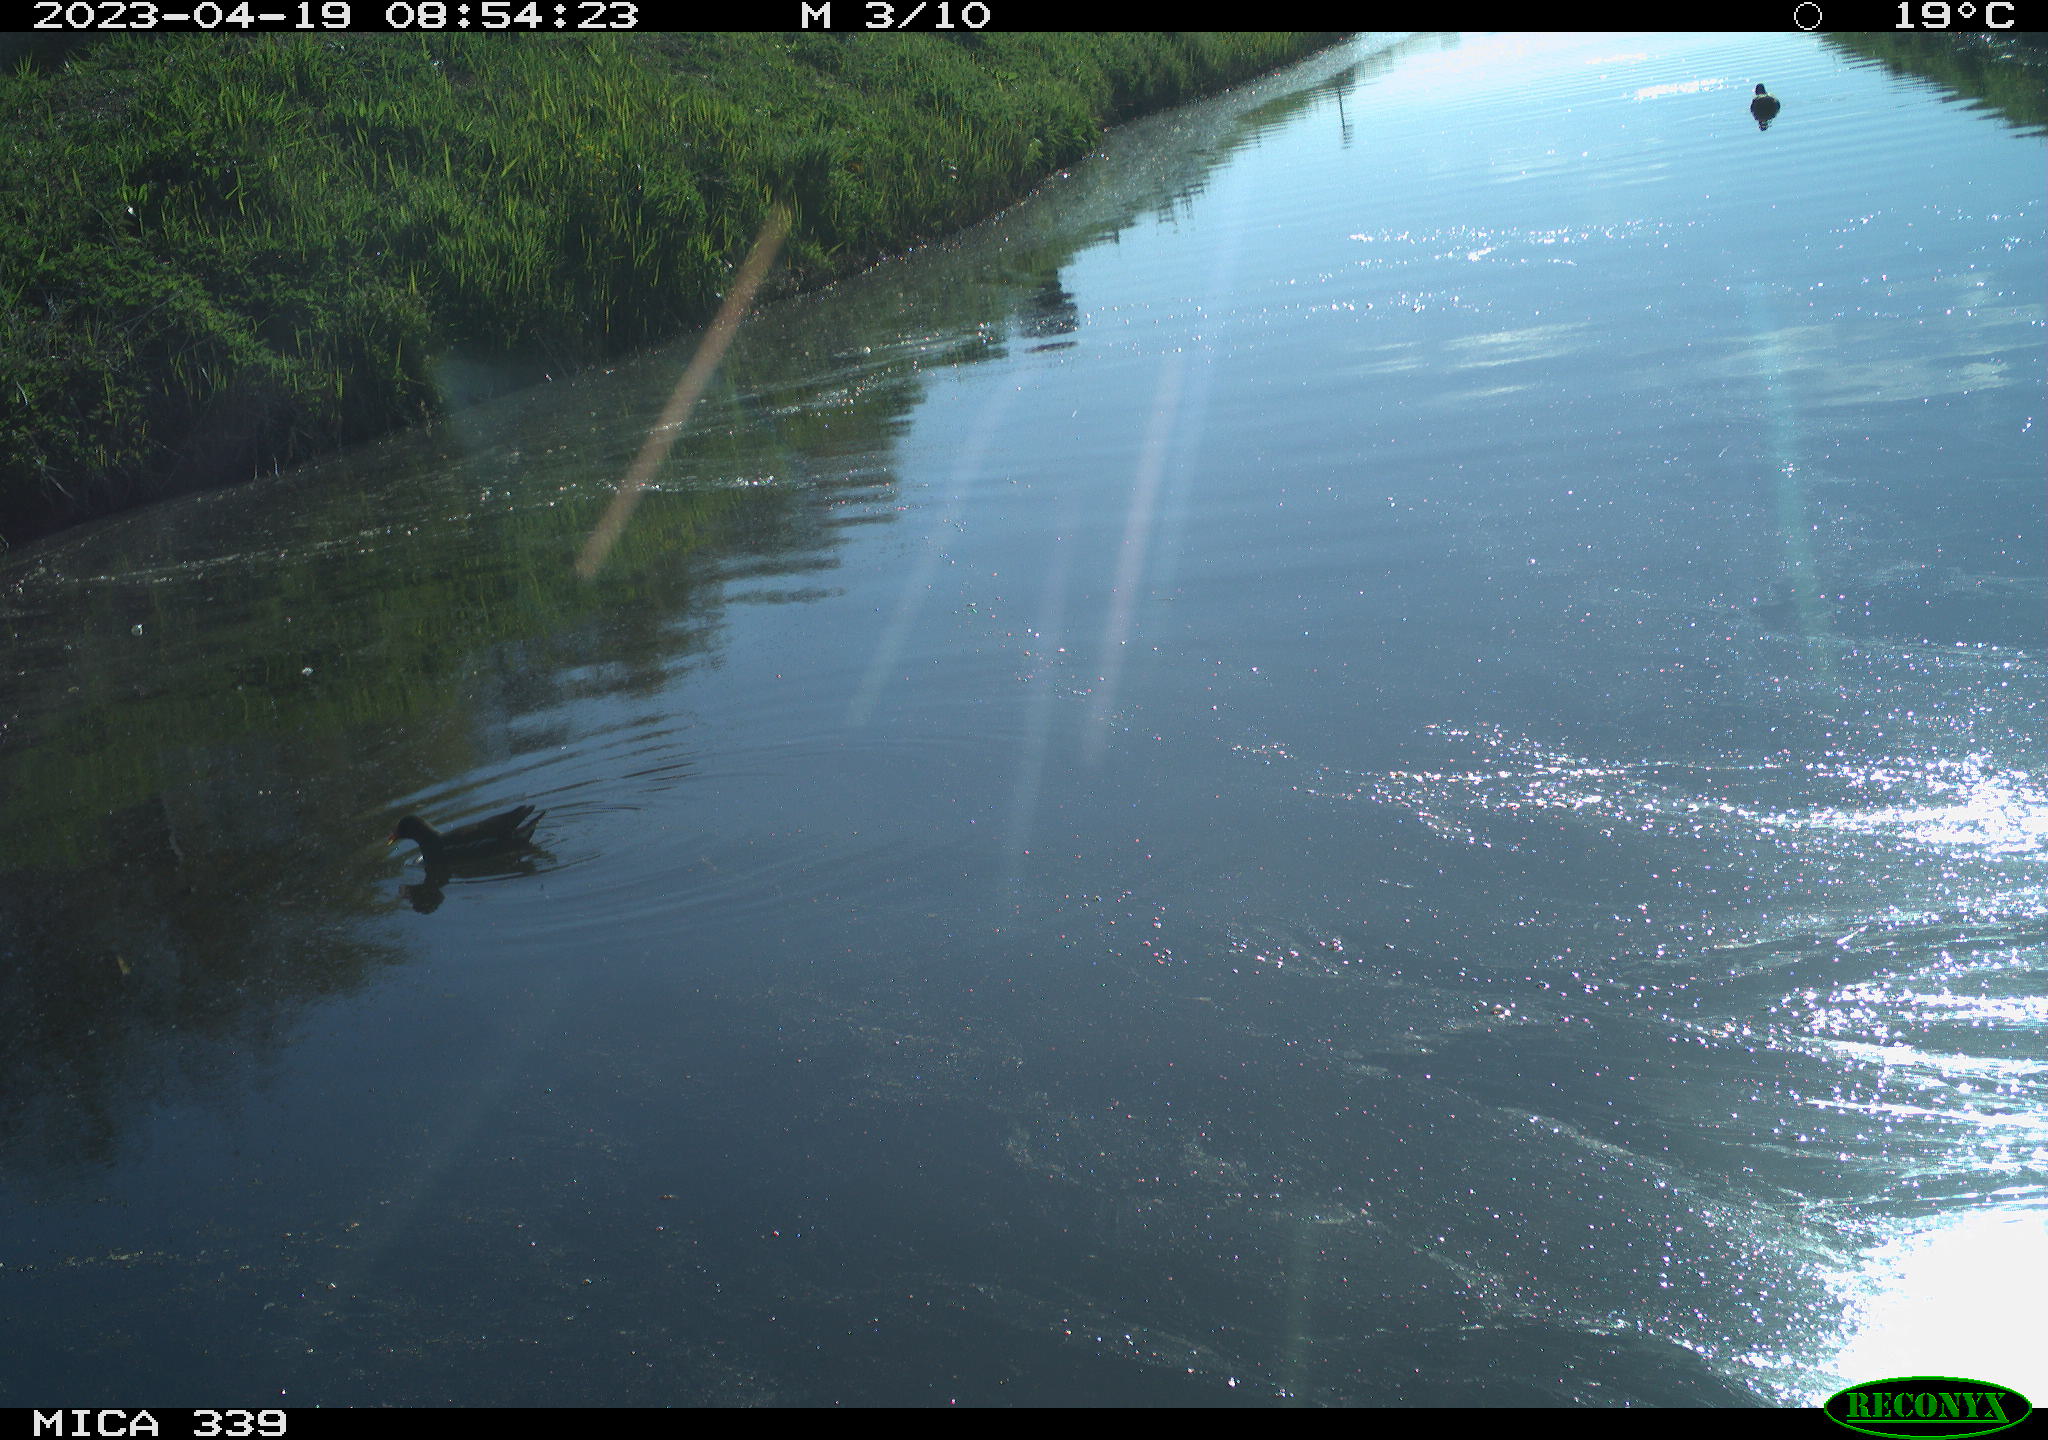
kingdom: Animalia
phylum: Chordata
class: Aves
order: Gruiformes
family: Rallidae
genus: Gallinula
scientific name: Gallinula chloropus
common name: Common moorhen
